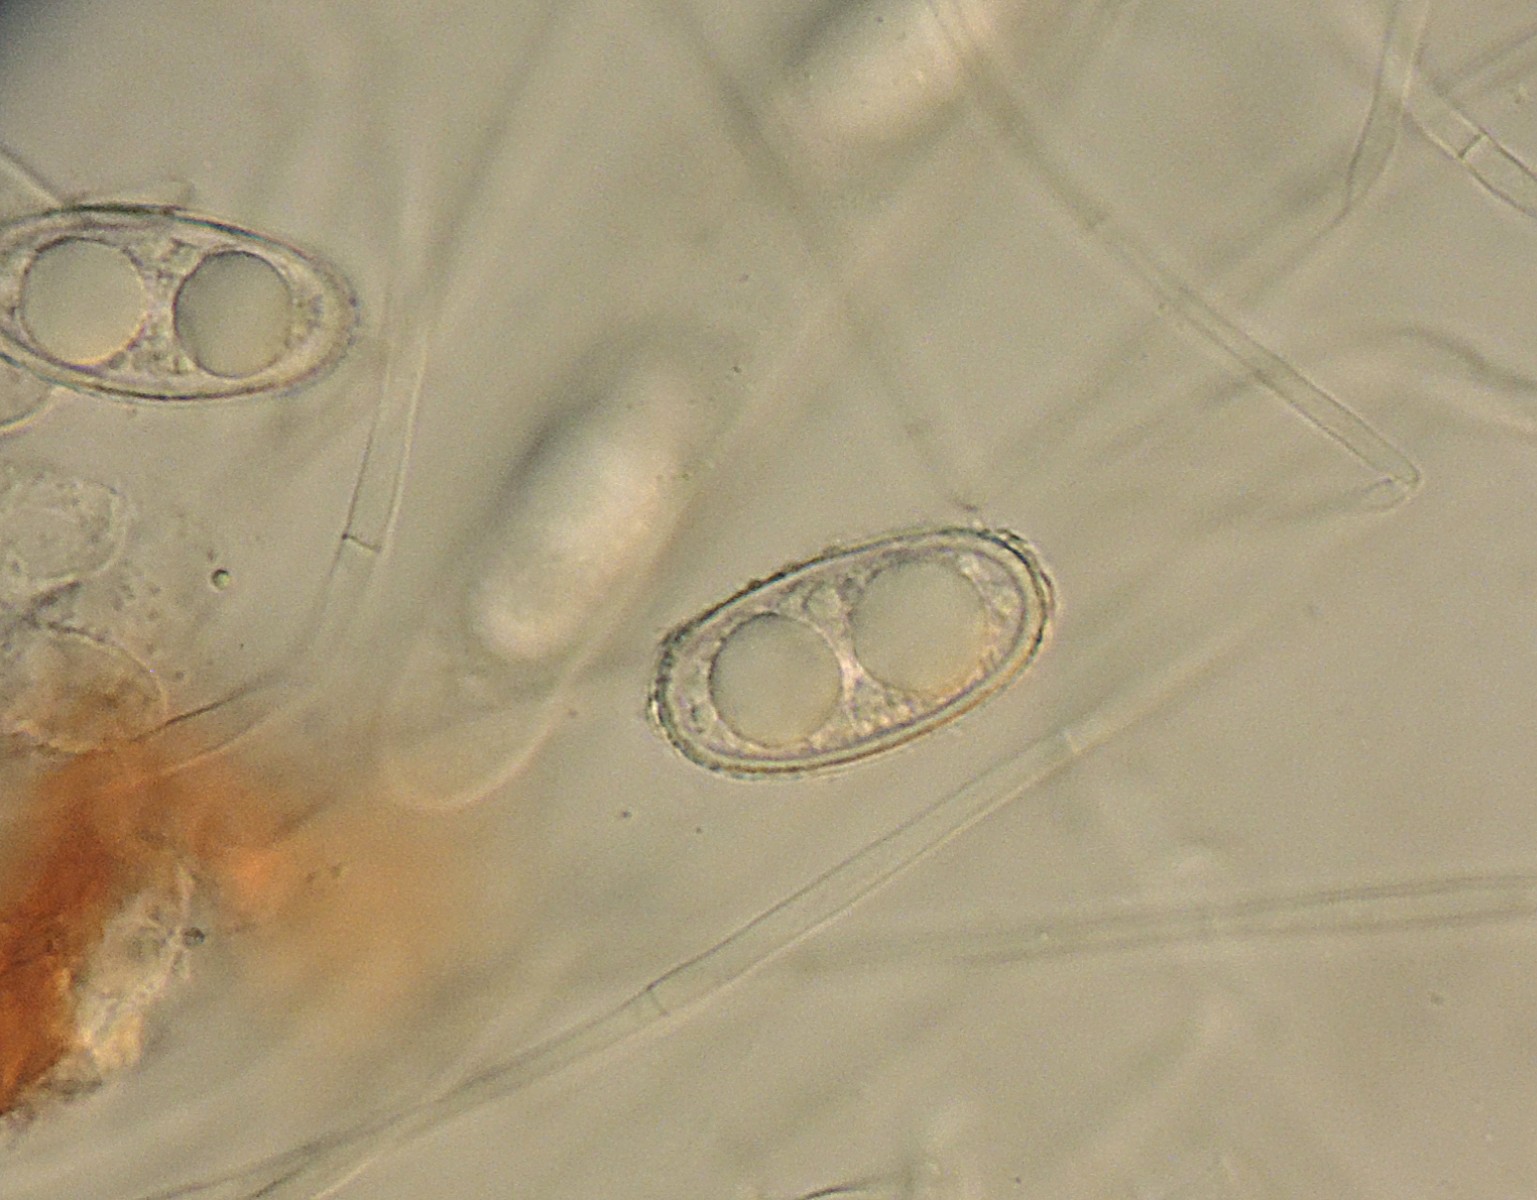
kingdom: Fungi
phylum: Ascomycota
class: Pezizomycetes
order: Pezizales
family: Pyronemataceae
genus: Humaria
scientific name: Humaria hemisphaerica
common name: halvkugleformet børstebæger
